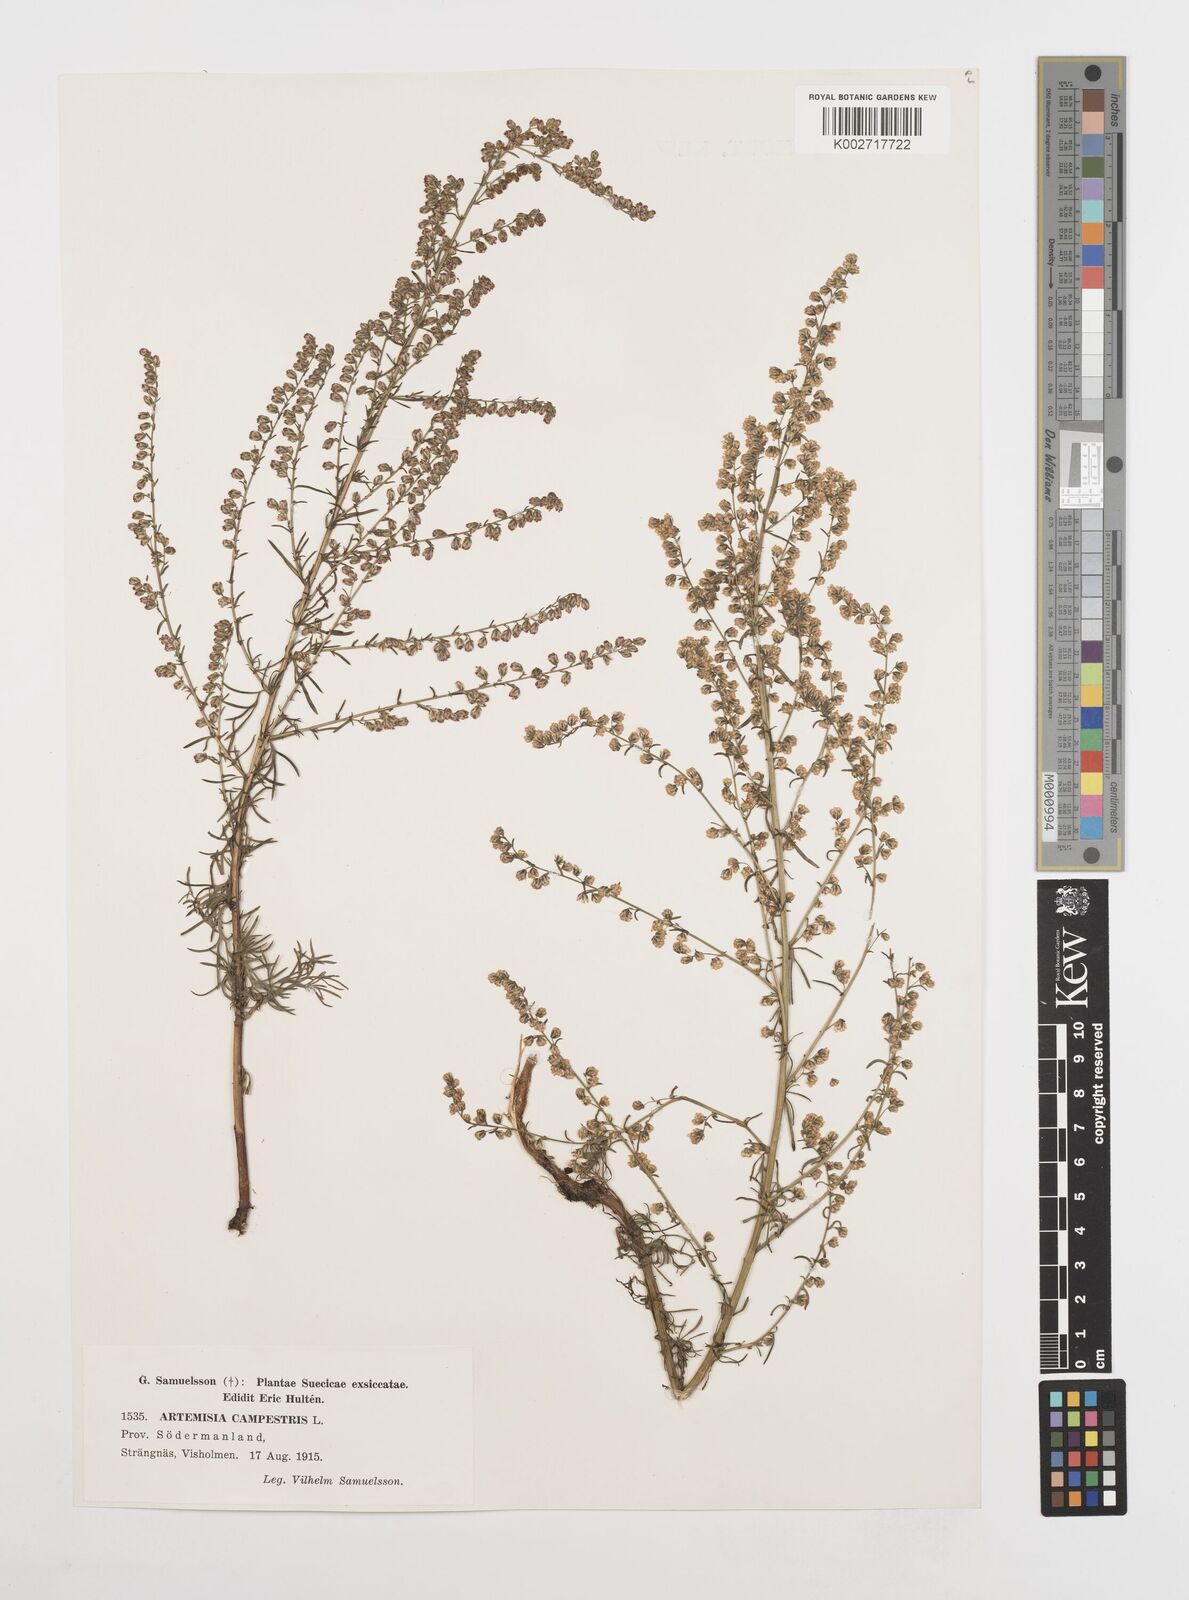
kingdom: Plantae
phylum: Tracheophyta
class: Magnoliopsida
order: Asterales
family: Asteraceae
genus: Artemisia
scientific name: Artemisia campestris
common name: Field wormwood
